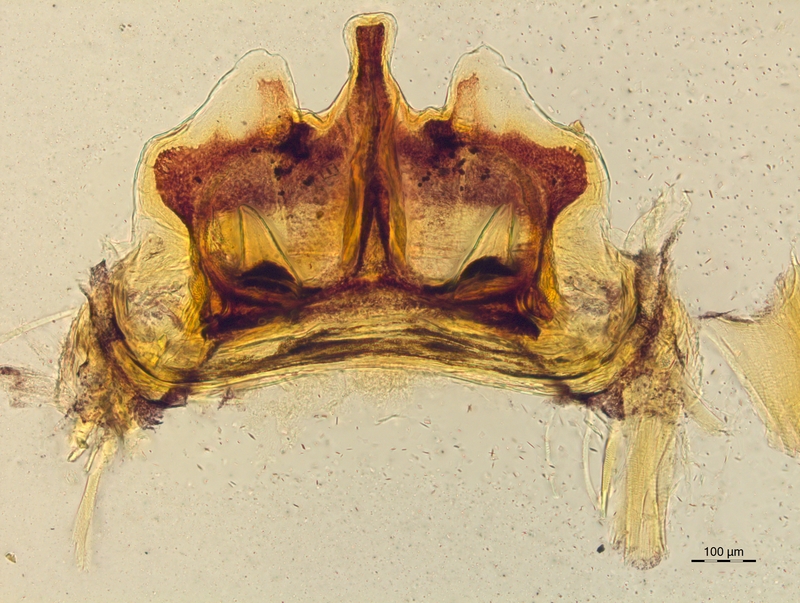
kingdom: Animalia
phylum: Arthropoda
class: Diplopoda
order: Chordeumatida
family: Craspedosomatidae
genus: Craspedosoma
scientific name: Craspedosoma rawlinsii
